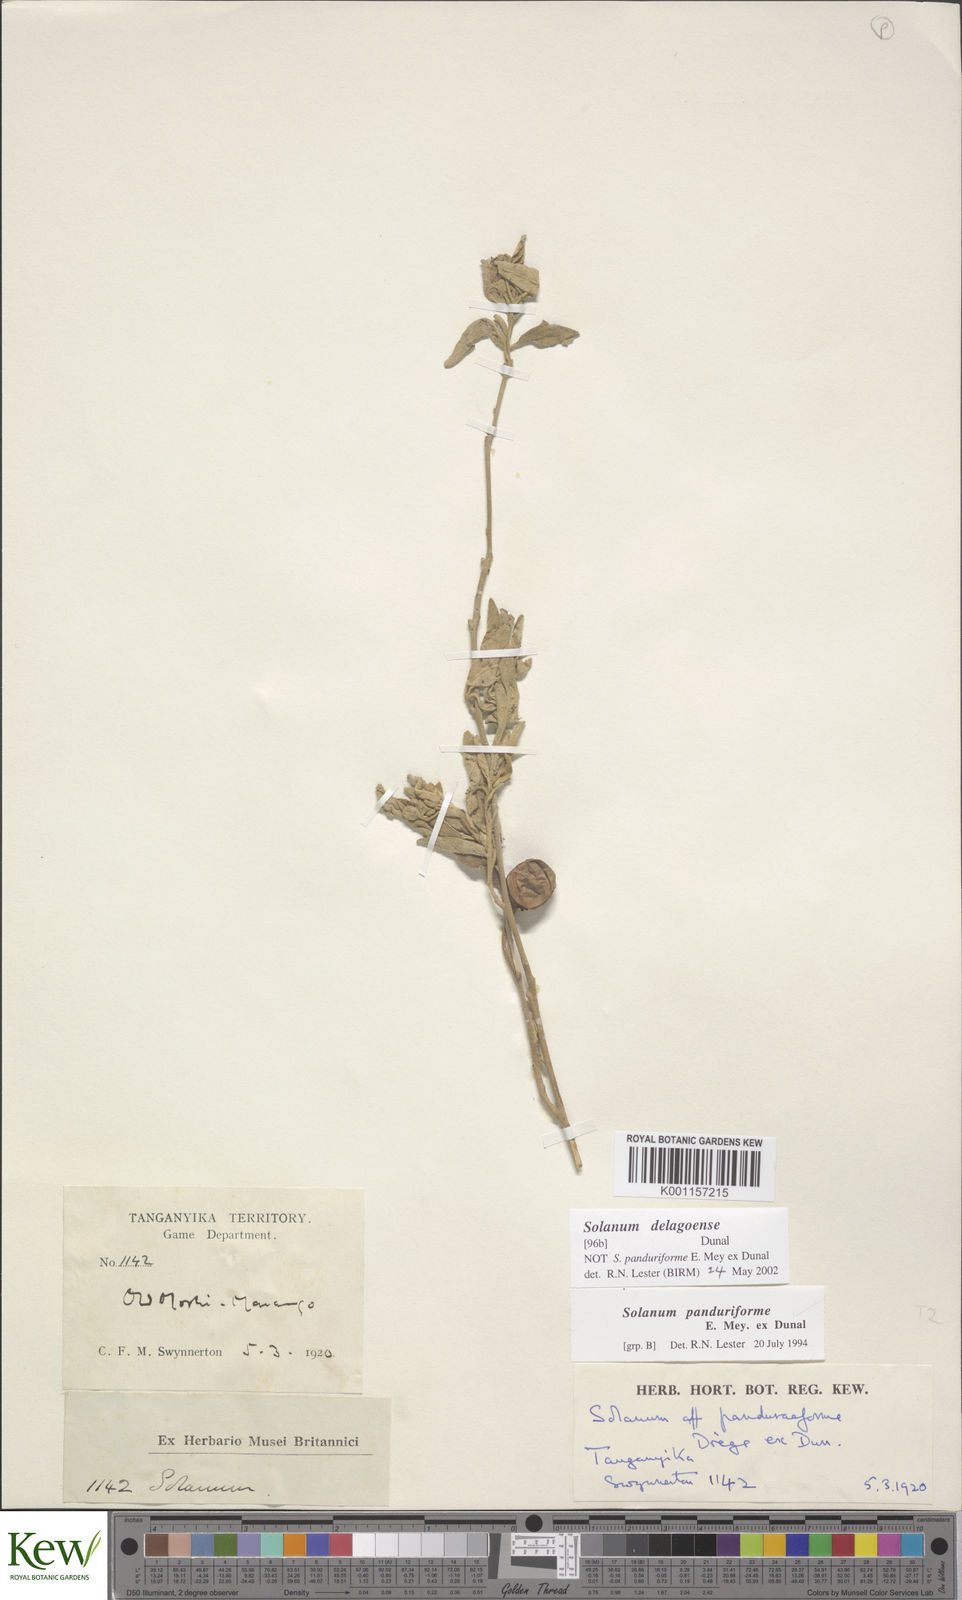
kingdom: Plantae
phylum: Tracheophyta
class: Magnoliopsida
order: Solanales
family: Solanaceae
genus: Solanum
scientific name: Solanum campylacanthum
